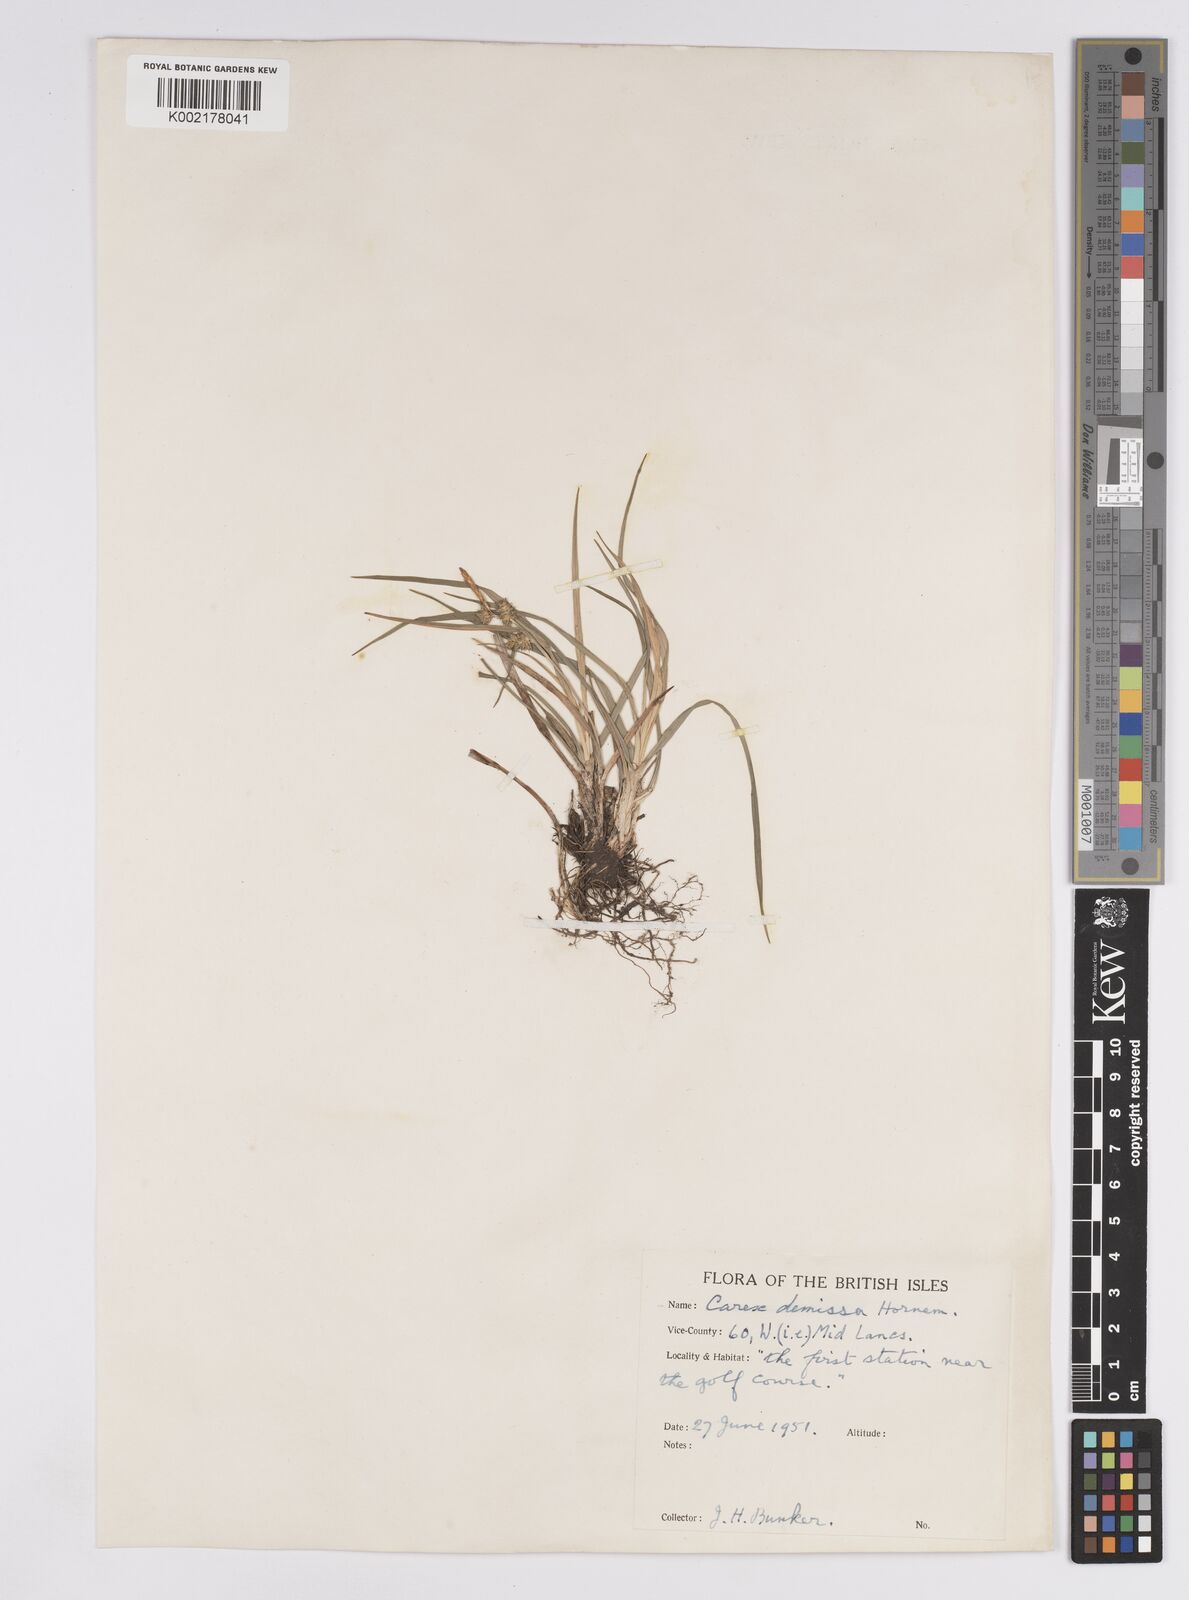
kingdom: Plantae
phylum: Tracheophyta
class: Liliopsida
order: Poales
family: Cyperaceae
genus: Carex
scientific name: Carex demissa
